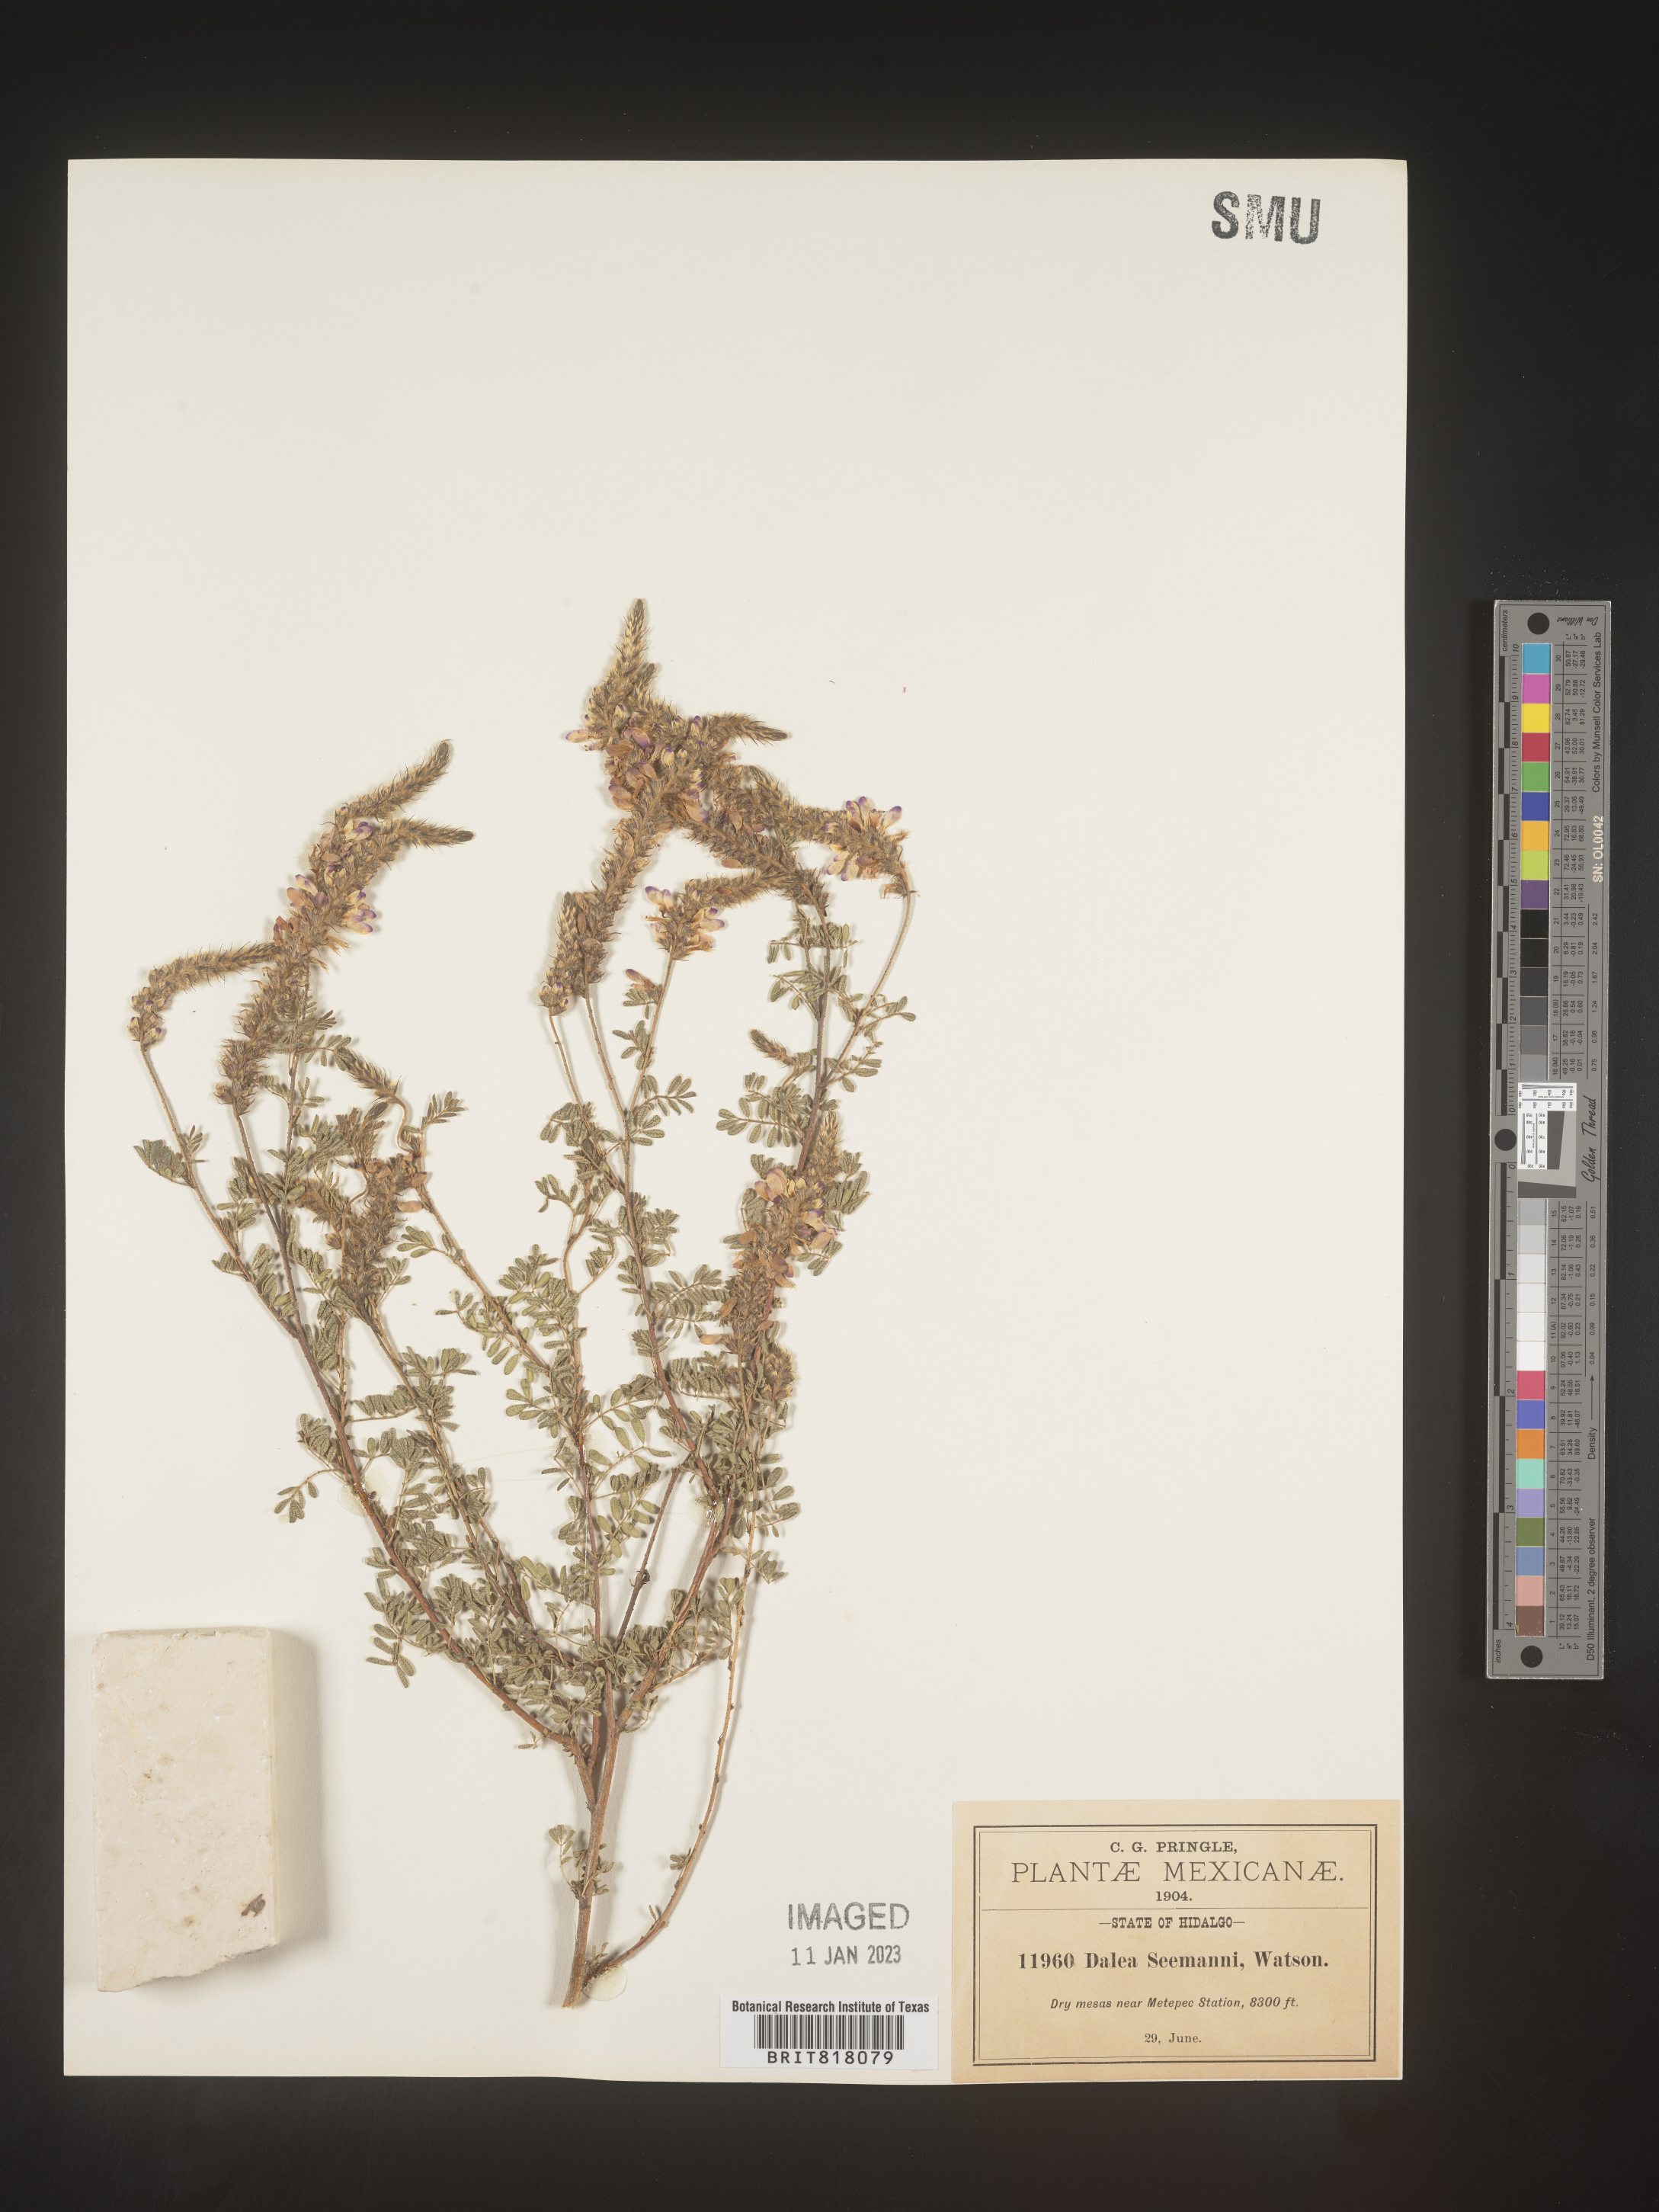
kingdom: Plantae
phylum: Tracheophyta
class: Magnoliopsida
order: Fabales
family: Fabaceae
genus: Dalea
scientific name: Dalea
